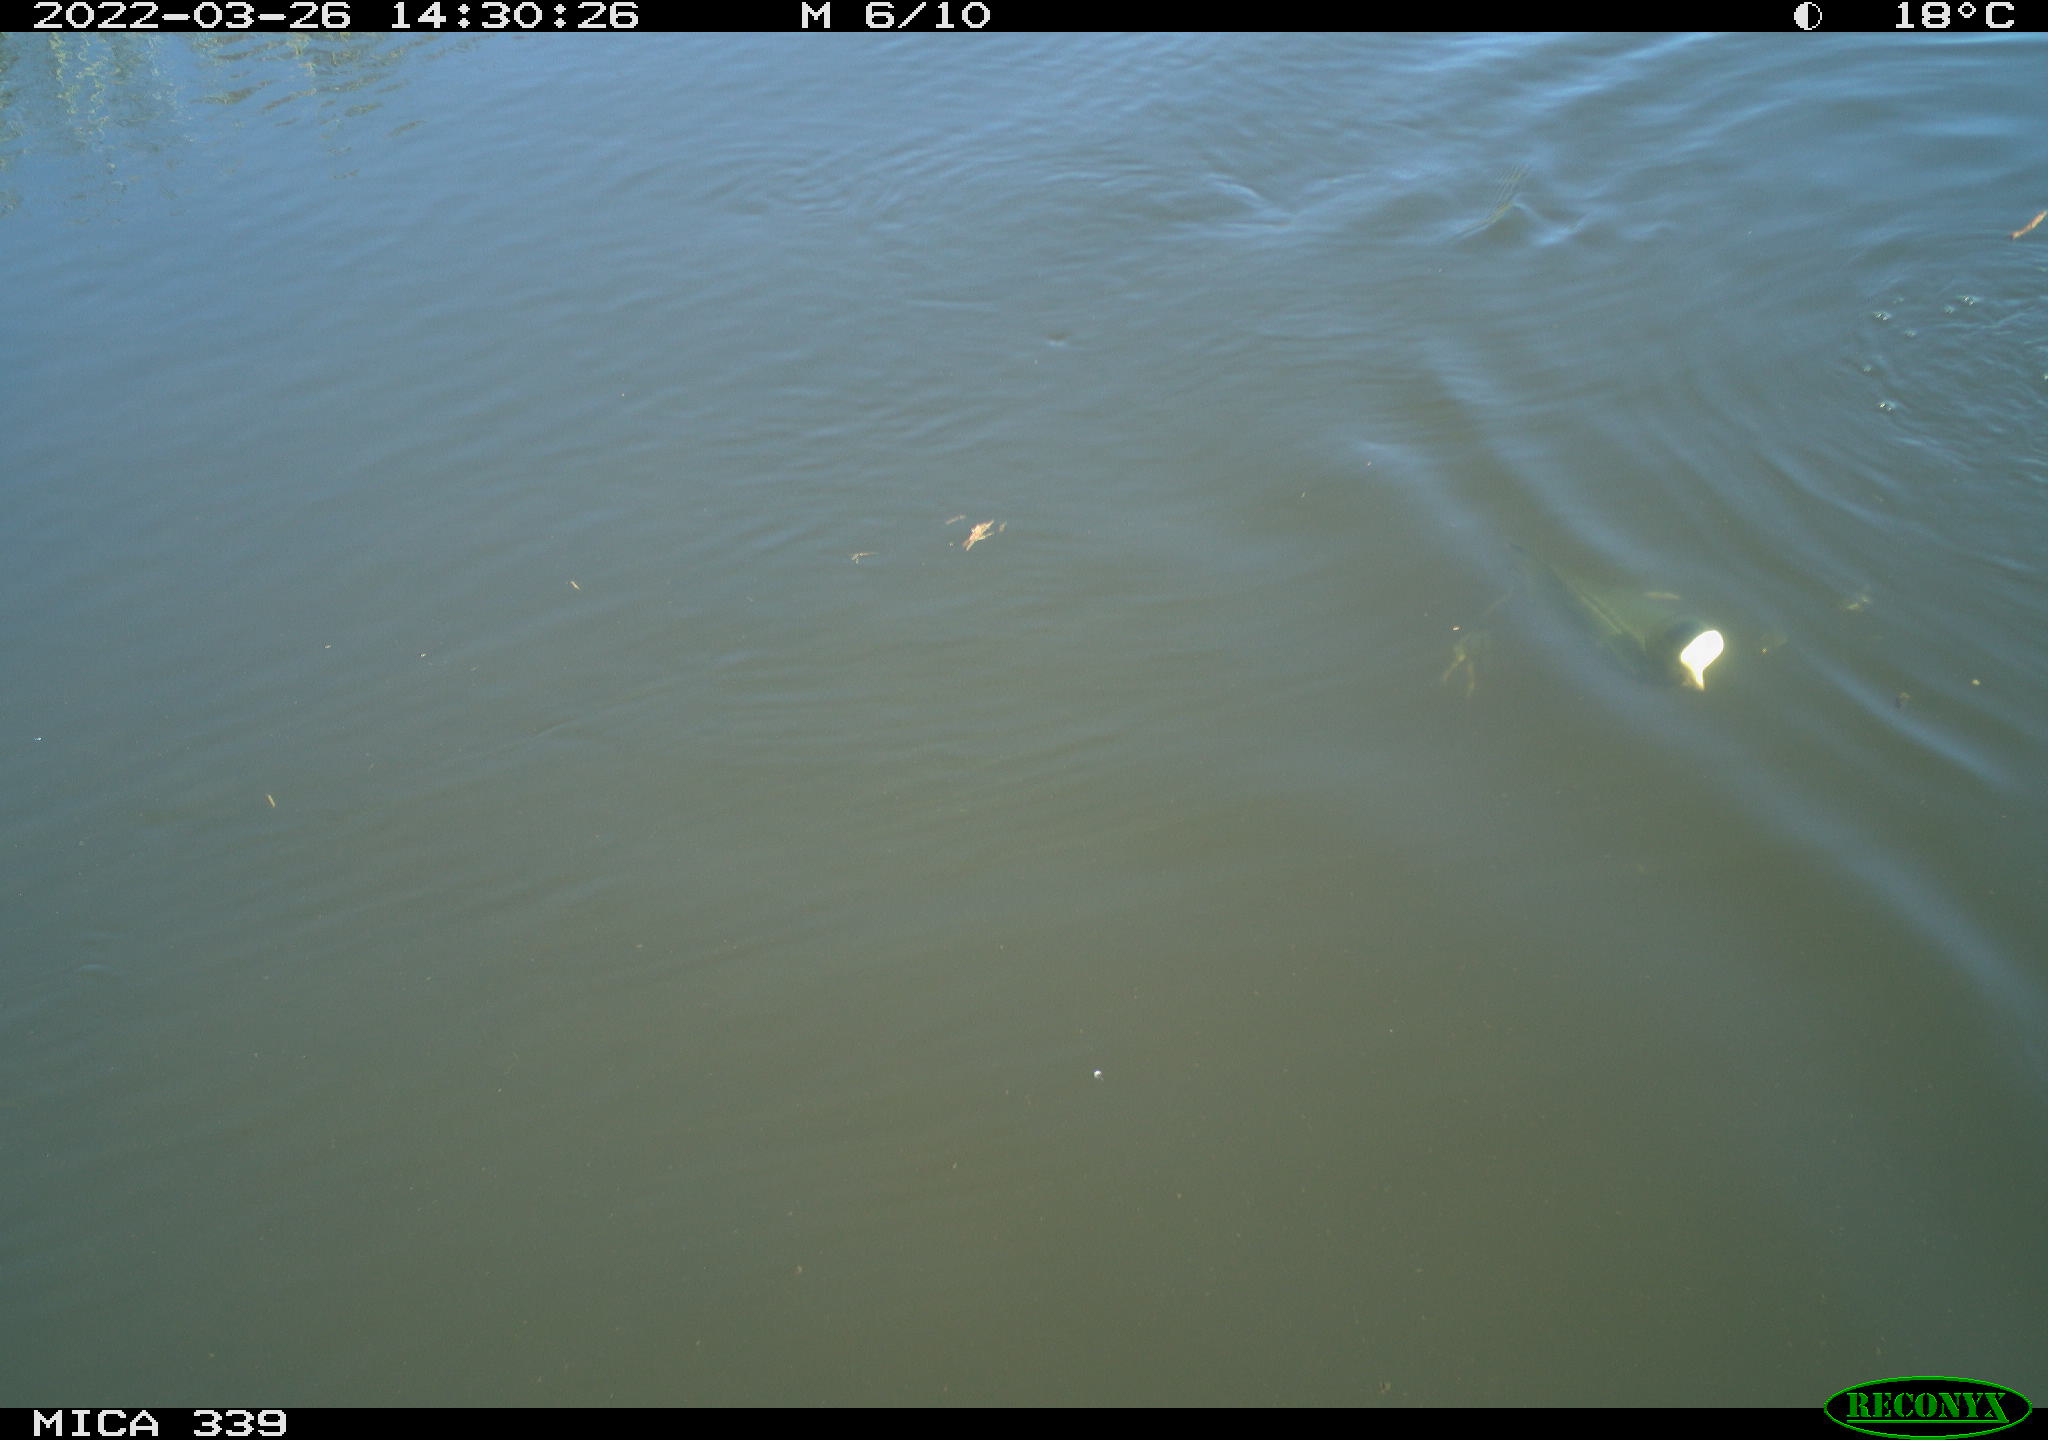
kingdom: Animalia
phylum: Chordata
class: Aves
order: Gruiformes
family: Rallidae
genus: Fulica
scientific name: Fulica atra
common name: Eurasian coot
